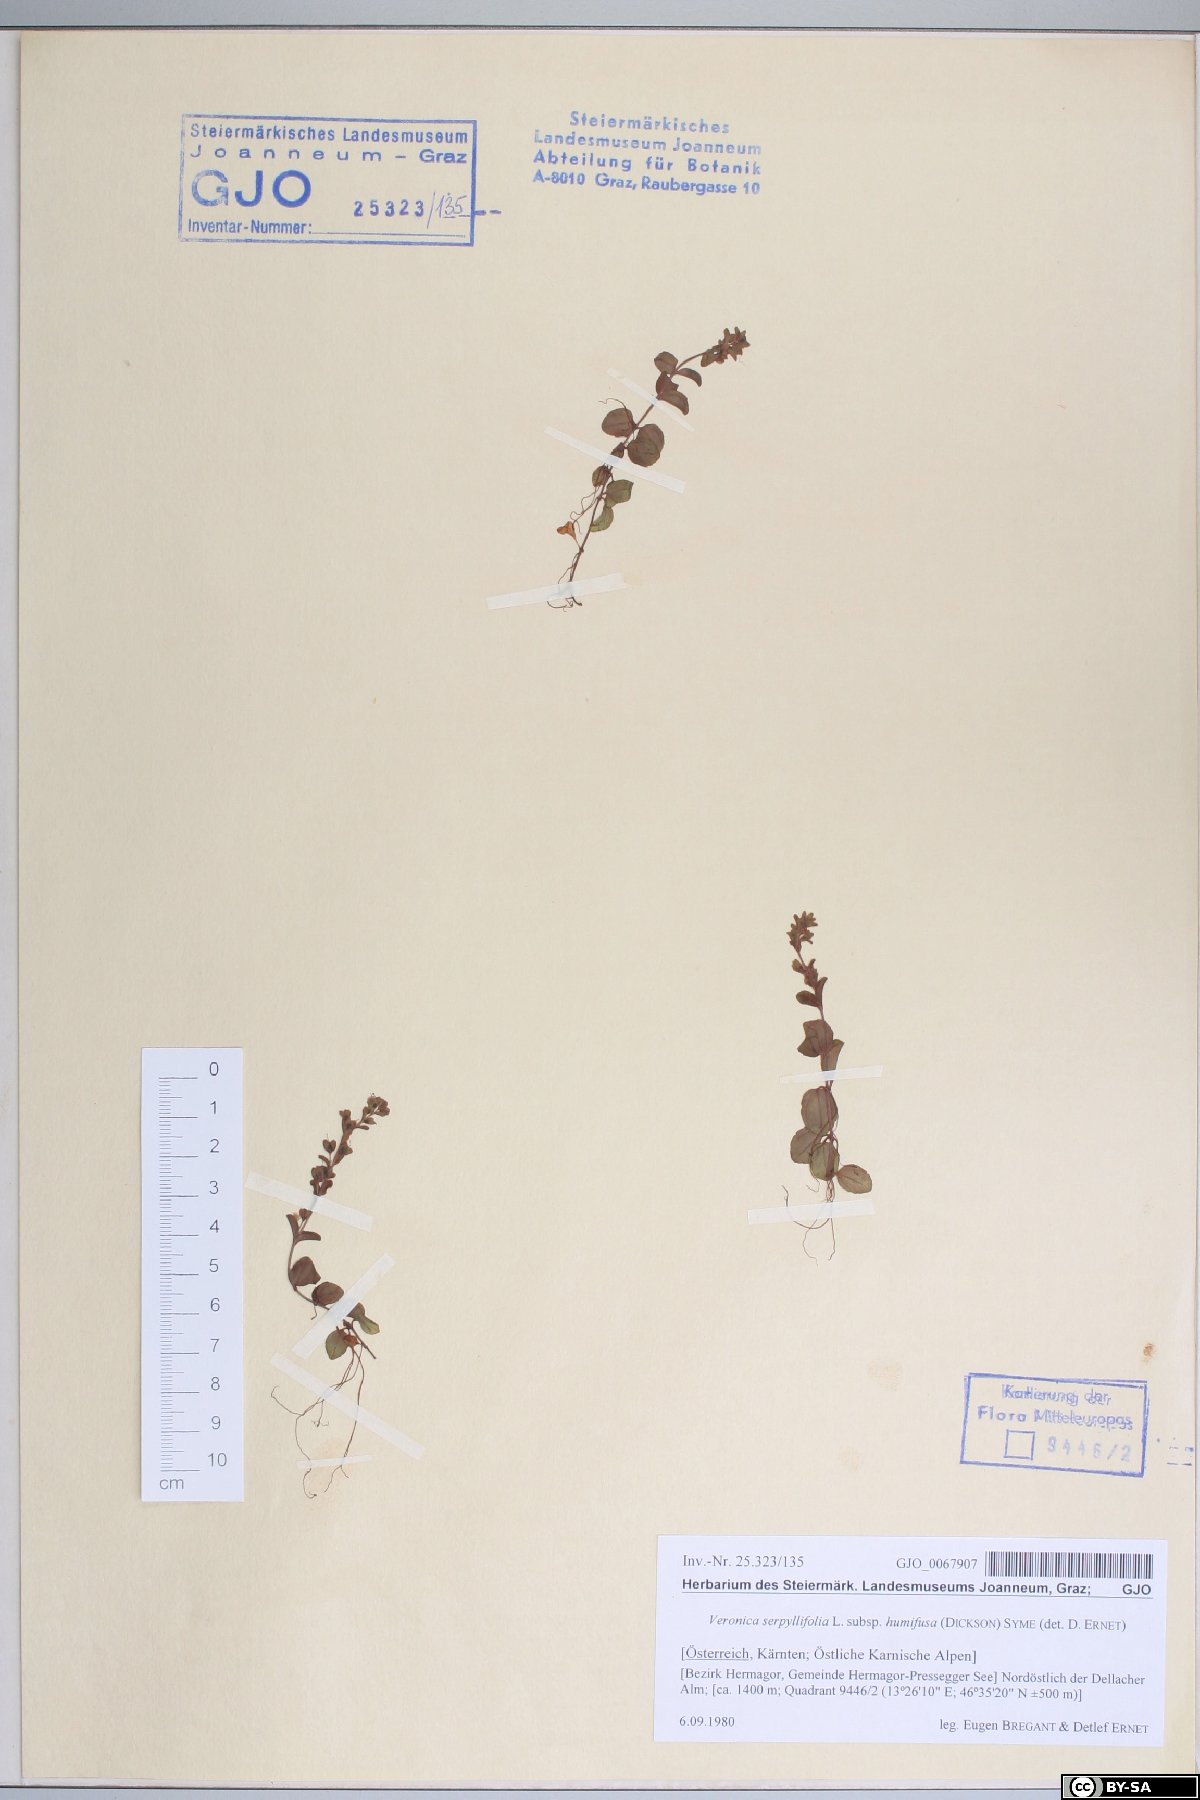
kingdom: Plantae
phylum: Tracheophyta
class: Magnoliopsida
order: Lamiales
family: Plantaginaceae
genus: Veronica
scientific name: Veronica serpyllifolia
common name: Thyme-leaved speedwell
